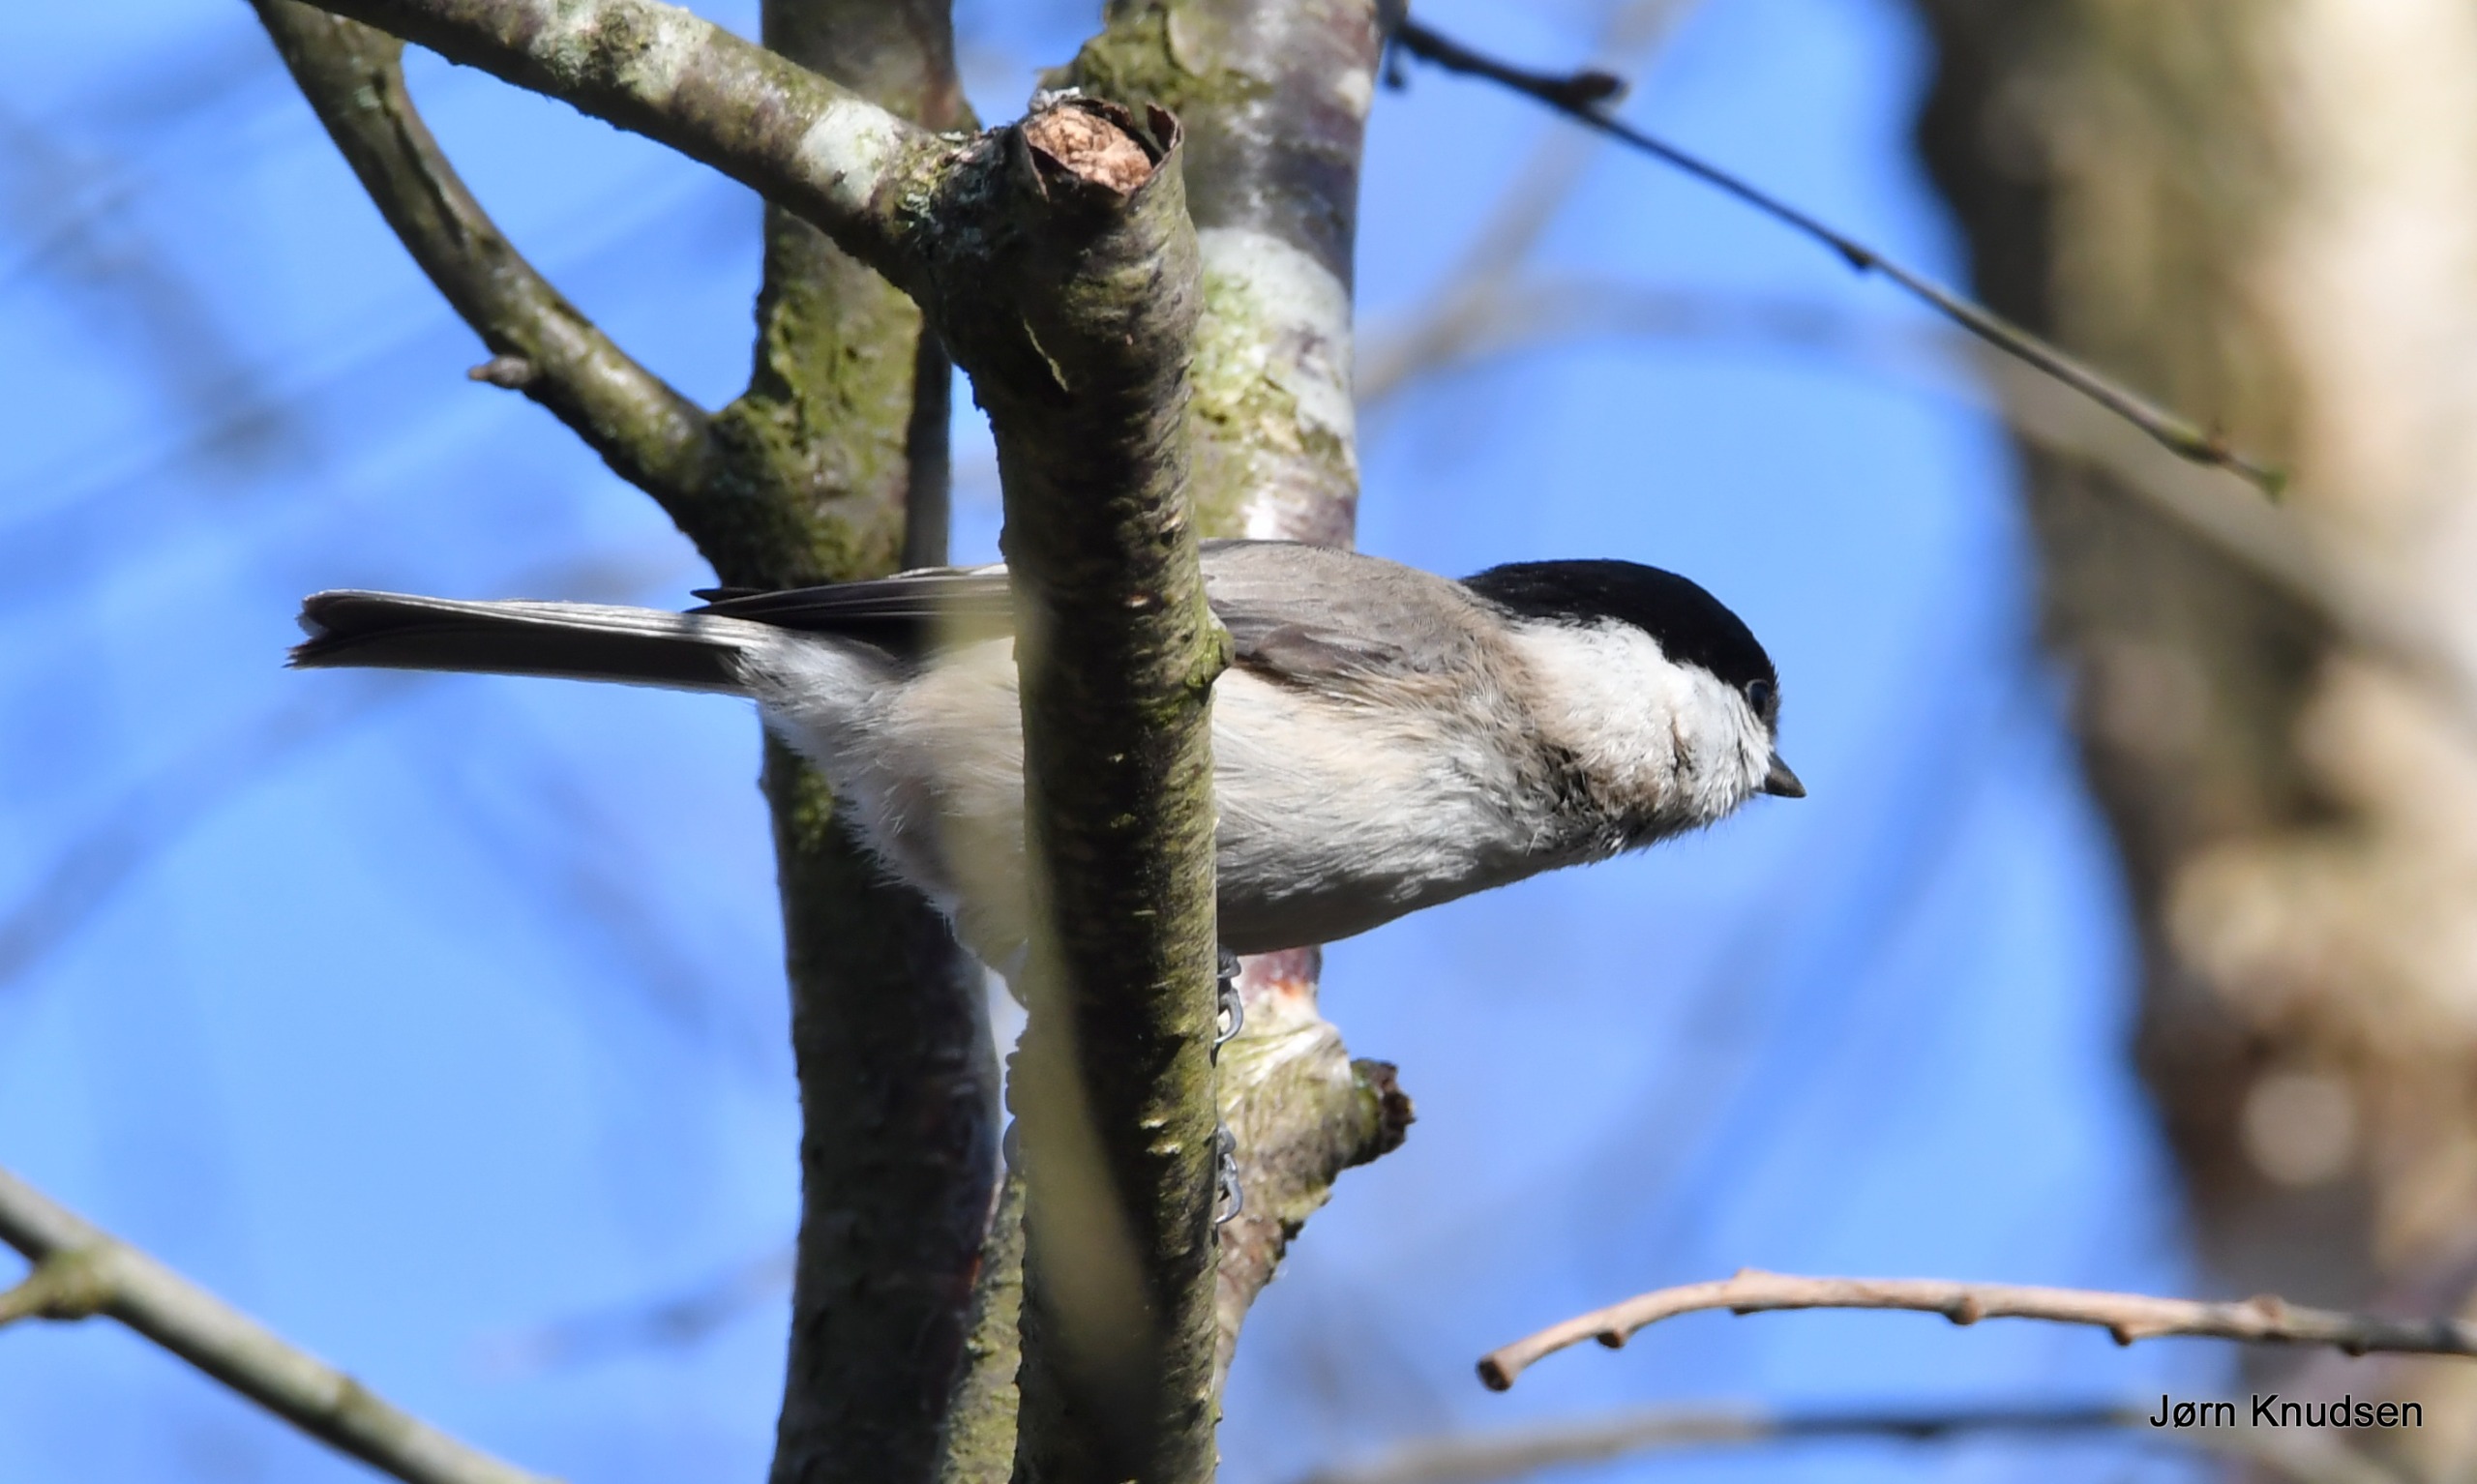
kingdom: Animalia
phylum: Chordata
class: Aves
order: Passeriformes
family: Paridae
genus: Poecile
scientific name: Poecile palustris
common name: Sumpmejse
